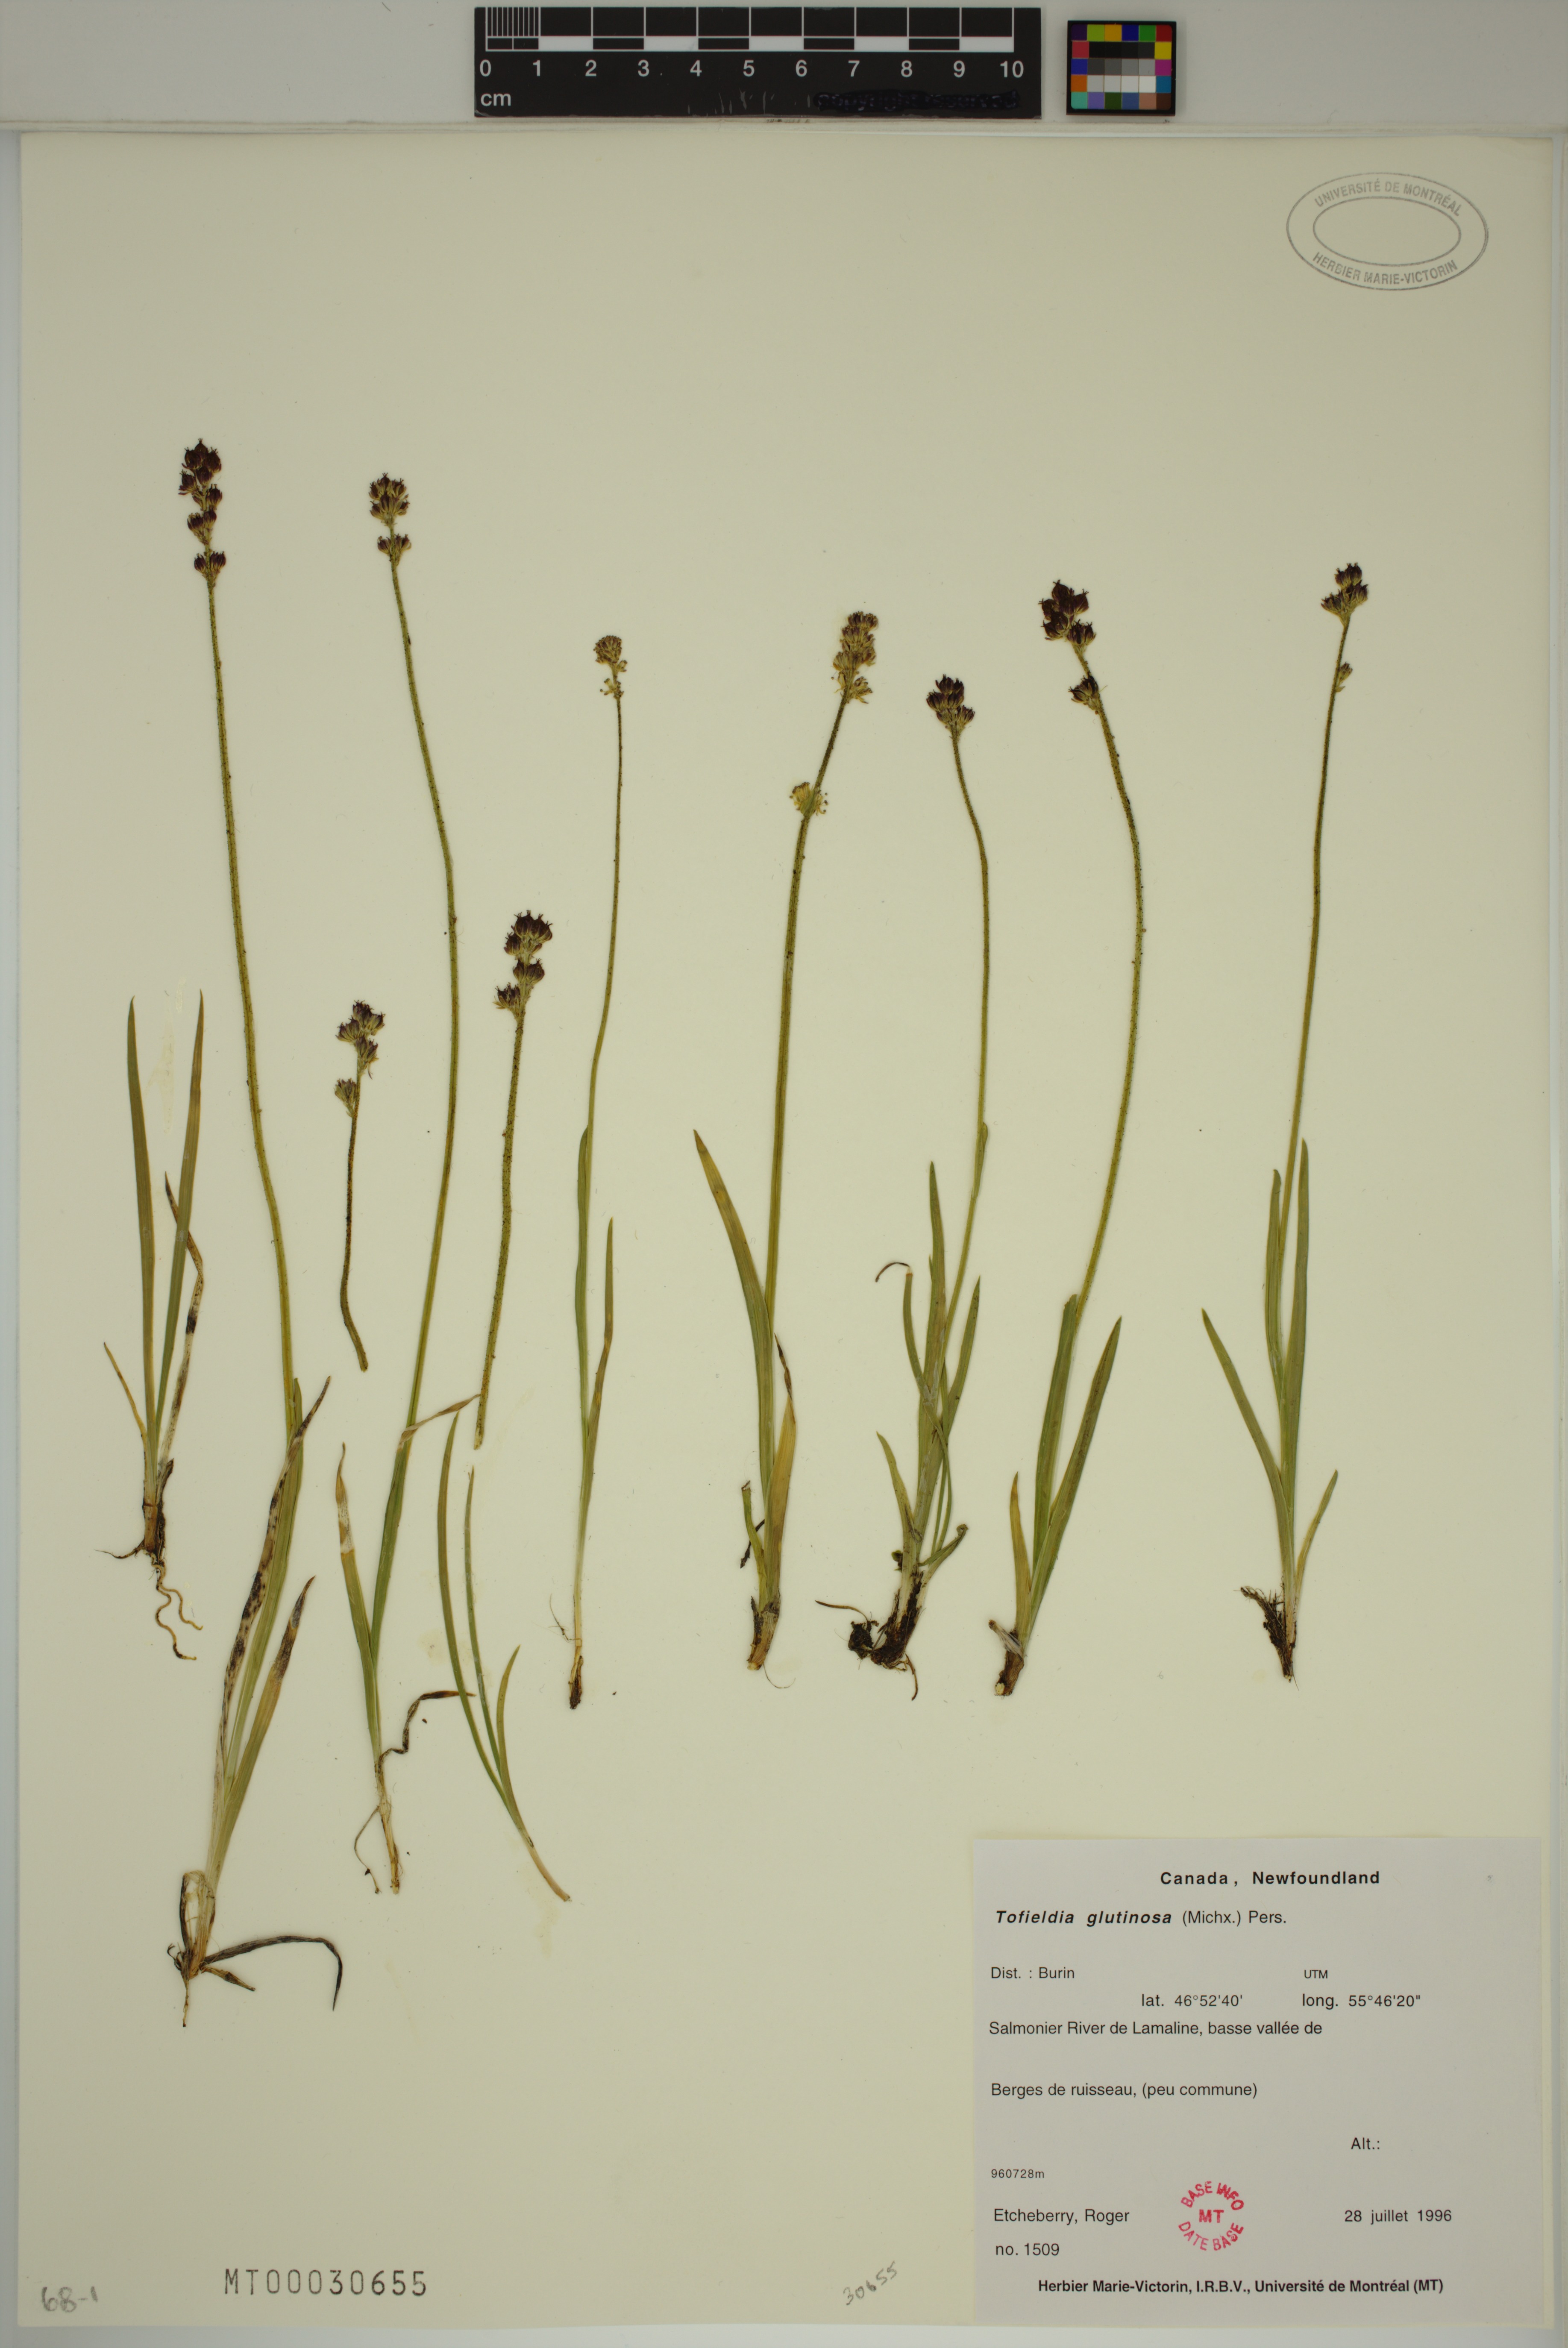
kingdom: Plantae
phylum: Tracheophyta
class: Liliopsida
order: Alismatales
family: Tofieldiaceae
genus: Triantha
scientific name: Triantha glutinosa
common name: Glutinous tofieldia
